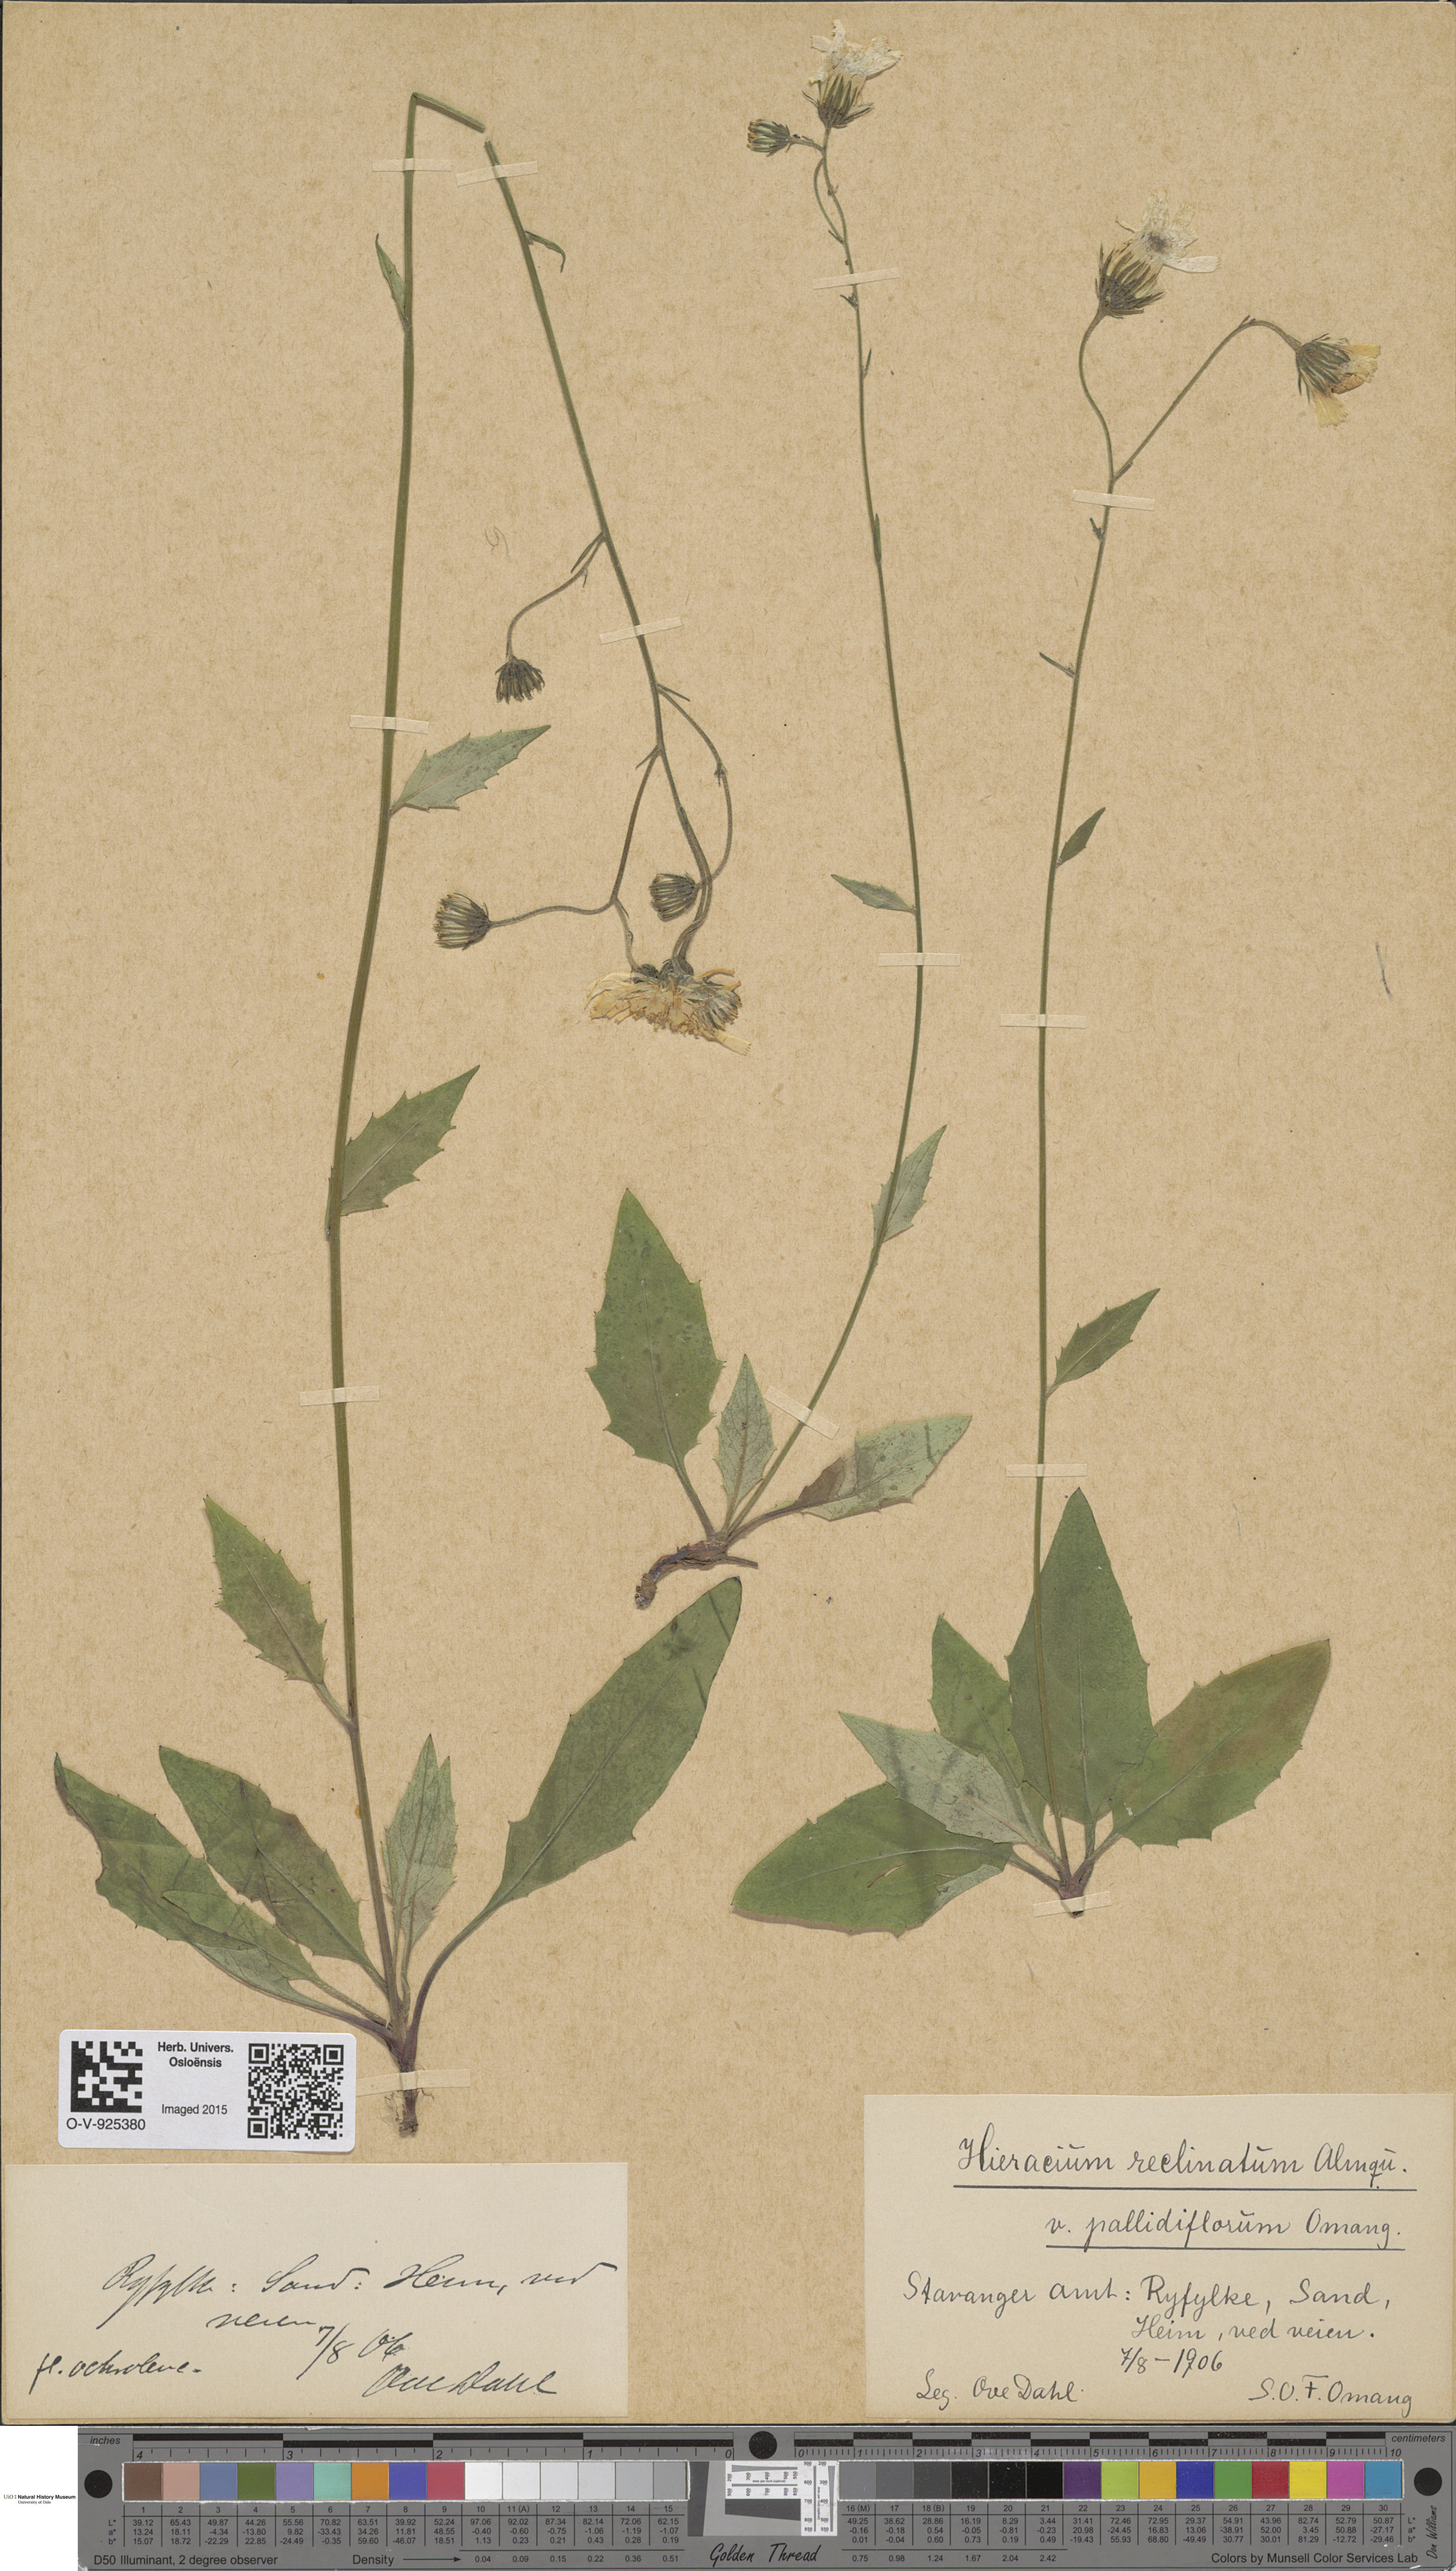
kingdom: Plantae
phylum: Tracheophyta
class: Magnoliopsida
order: Asterales
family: Asteraceae
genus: Hieracium
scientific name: Hieracium caesium
